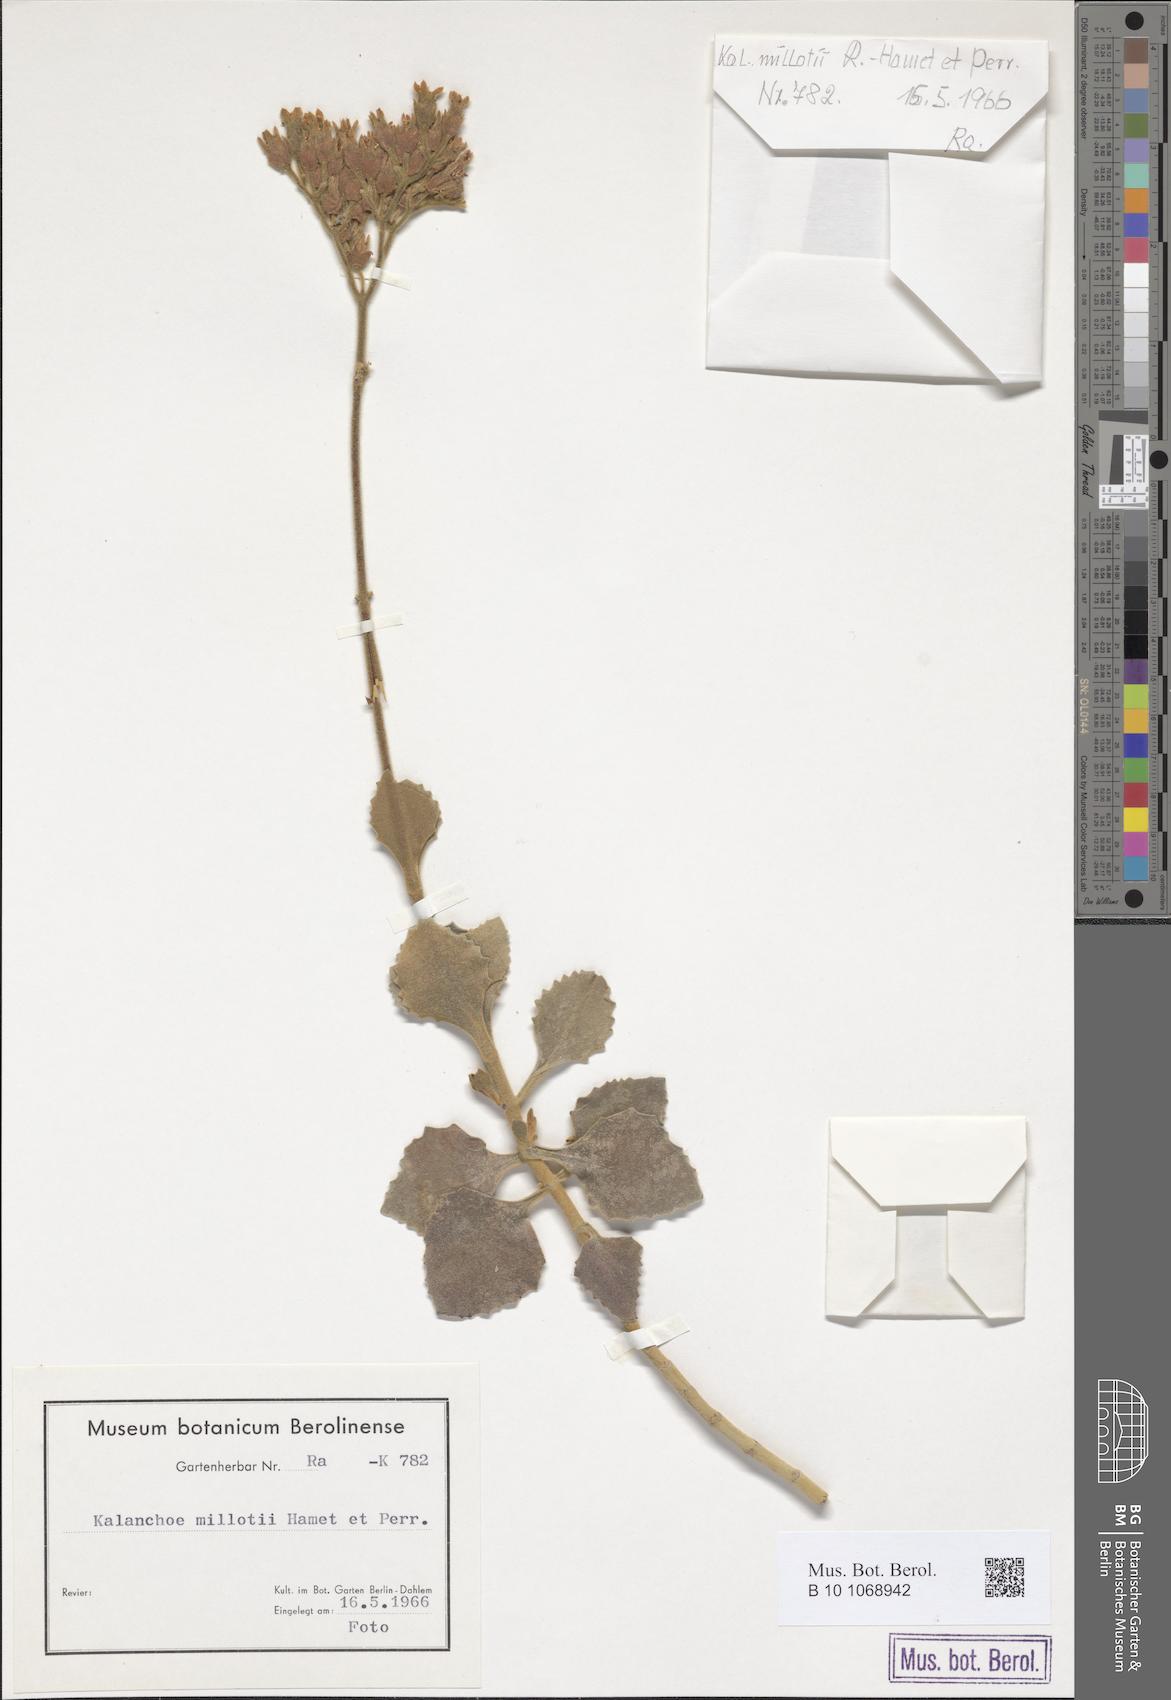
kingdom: Plantae
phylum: Tracheophyta
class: Magnoliopsida
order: Saxifragales
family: Crassulaceae
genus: Kalanchoe
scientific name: Kalanchoe millotii
